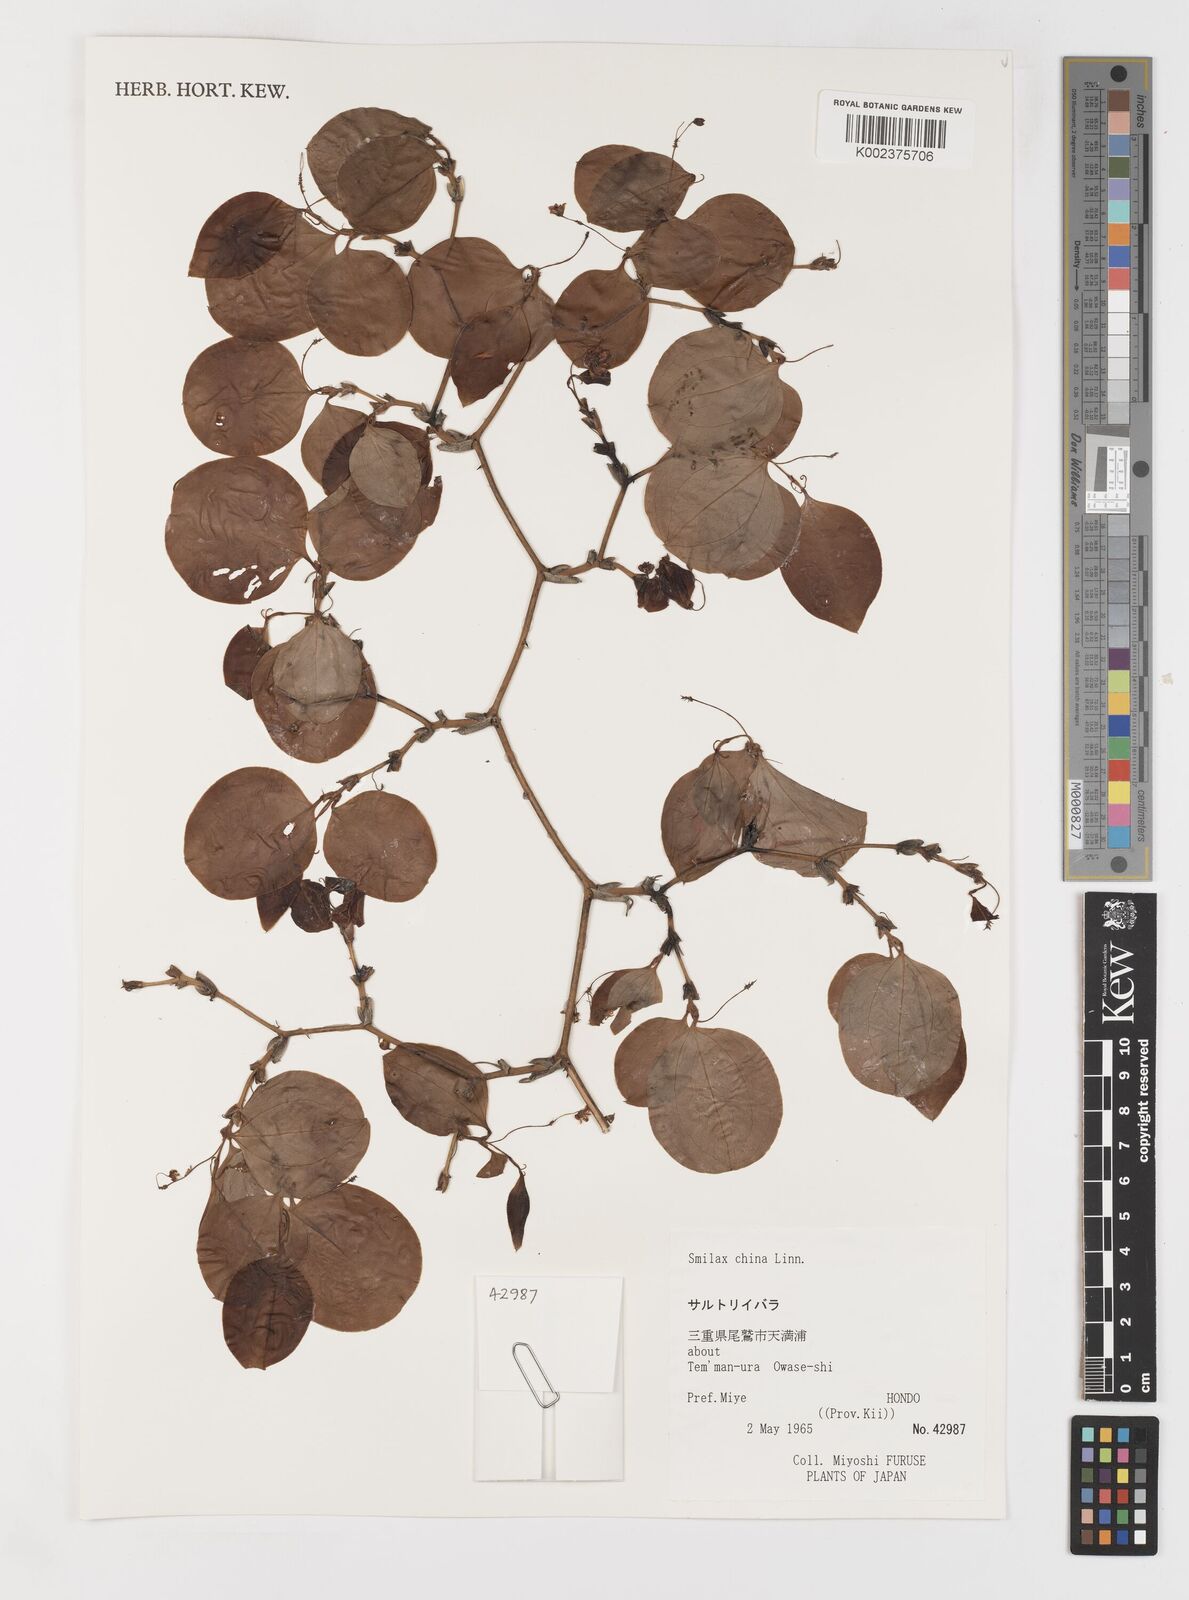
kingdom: Plantae
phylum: Tracheophyta
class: Liliopsida
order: Liliales
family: Smilacaceae
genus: Smilax
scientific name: Smilax china
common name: Chinaroot
